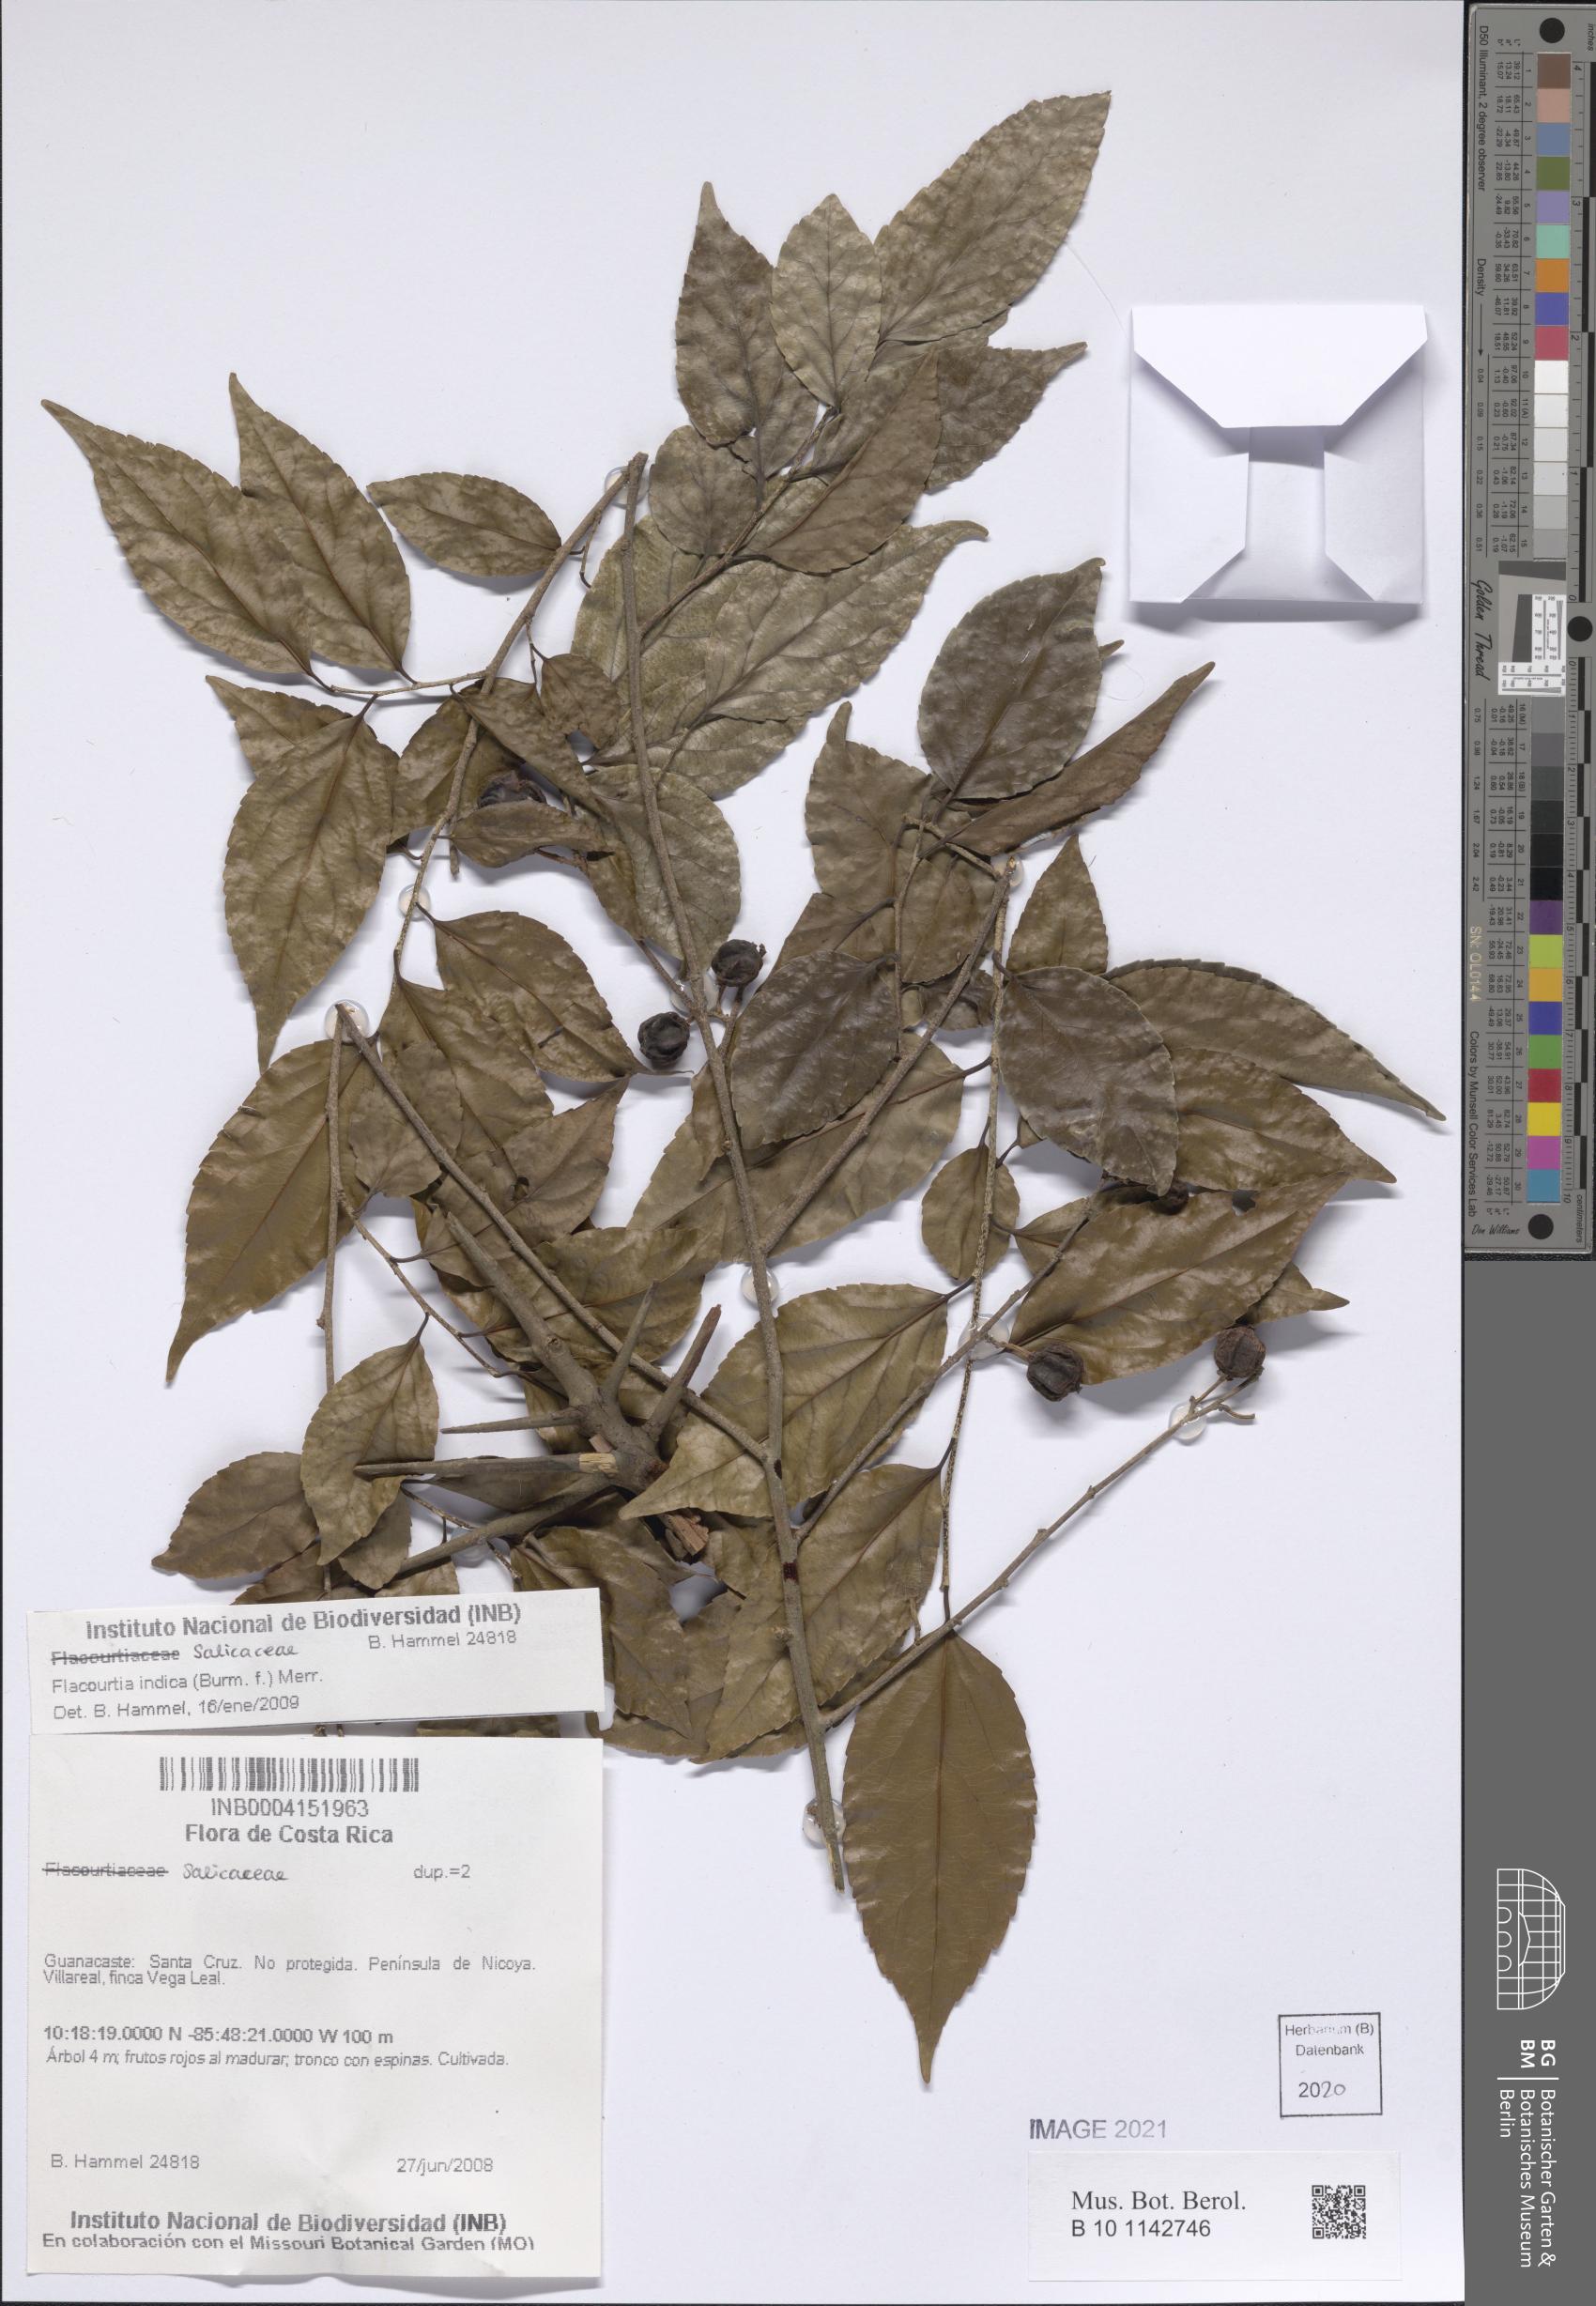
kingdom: Plantae
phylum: Tracheophyta
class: Magnoliopsida
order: Malpighiales
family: Salicaceae
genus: Flacourtia
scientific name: Flacourtia indica
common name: Governor's plum
